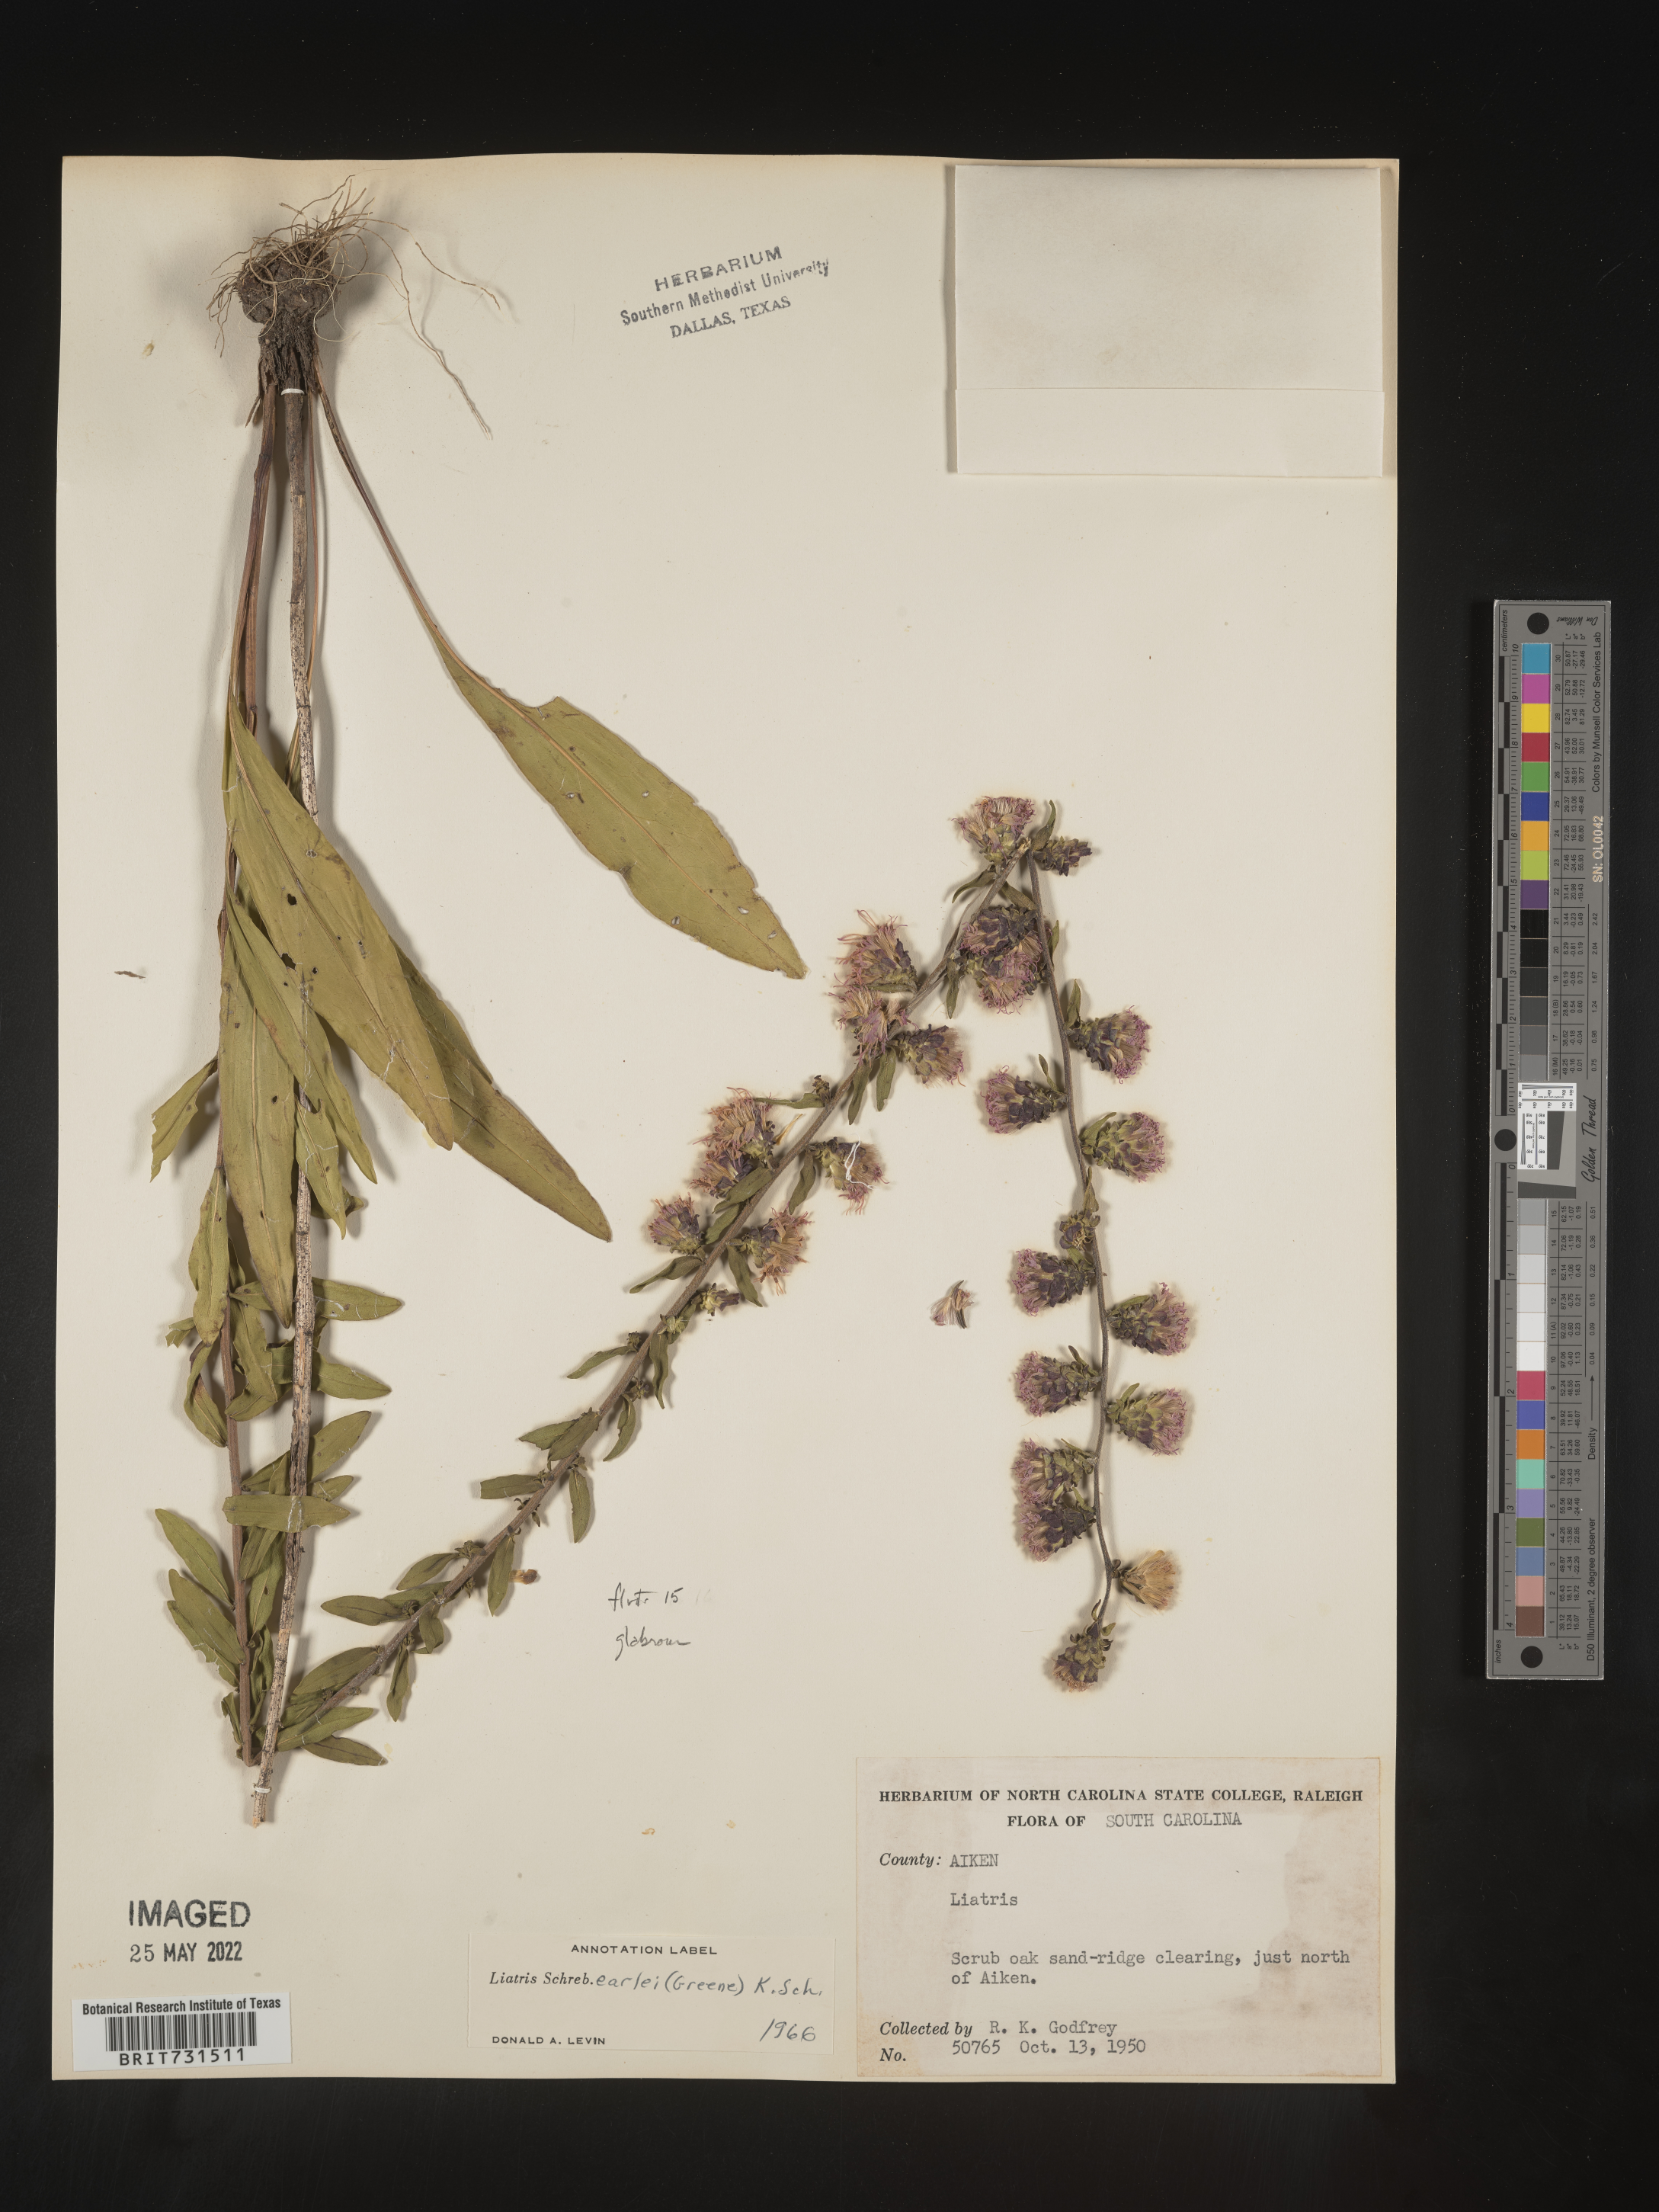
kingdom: Plantae
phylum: Tracheophyta
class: Magnoliopsida
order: Asterales
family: Asteraceae
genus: Liatris
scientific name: Liatris squarrulosa
